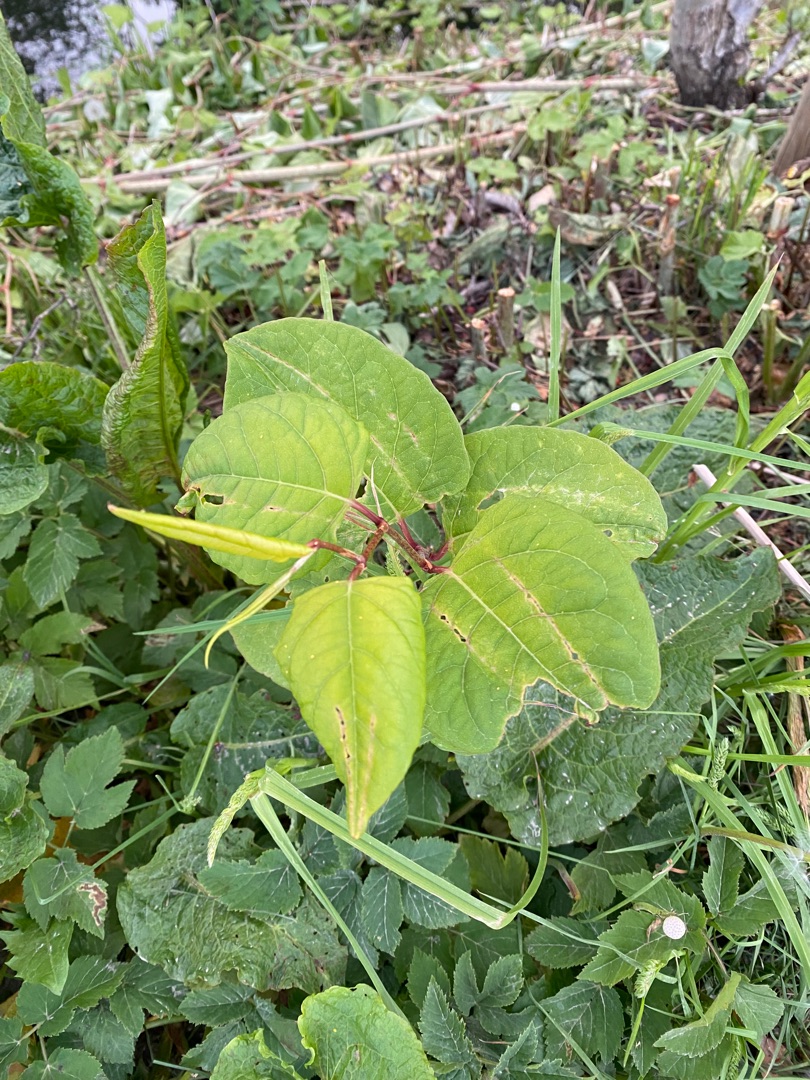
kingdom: Plantae
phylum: Tracheophyta
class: Magnoliopsida
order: Caryophyllales
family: Polygonaceae
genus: Reynoutria
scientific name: Reynoutria japonica
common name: Japan-pileurt
